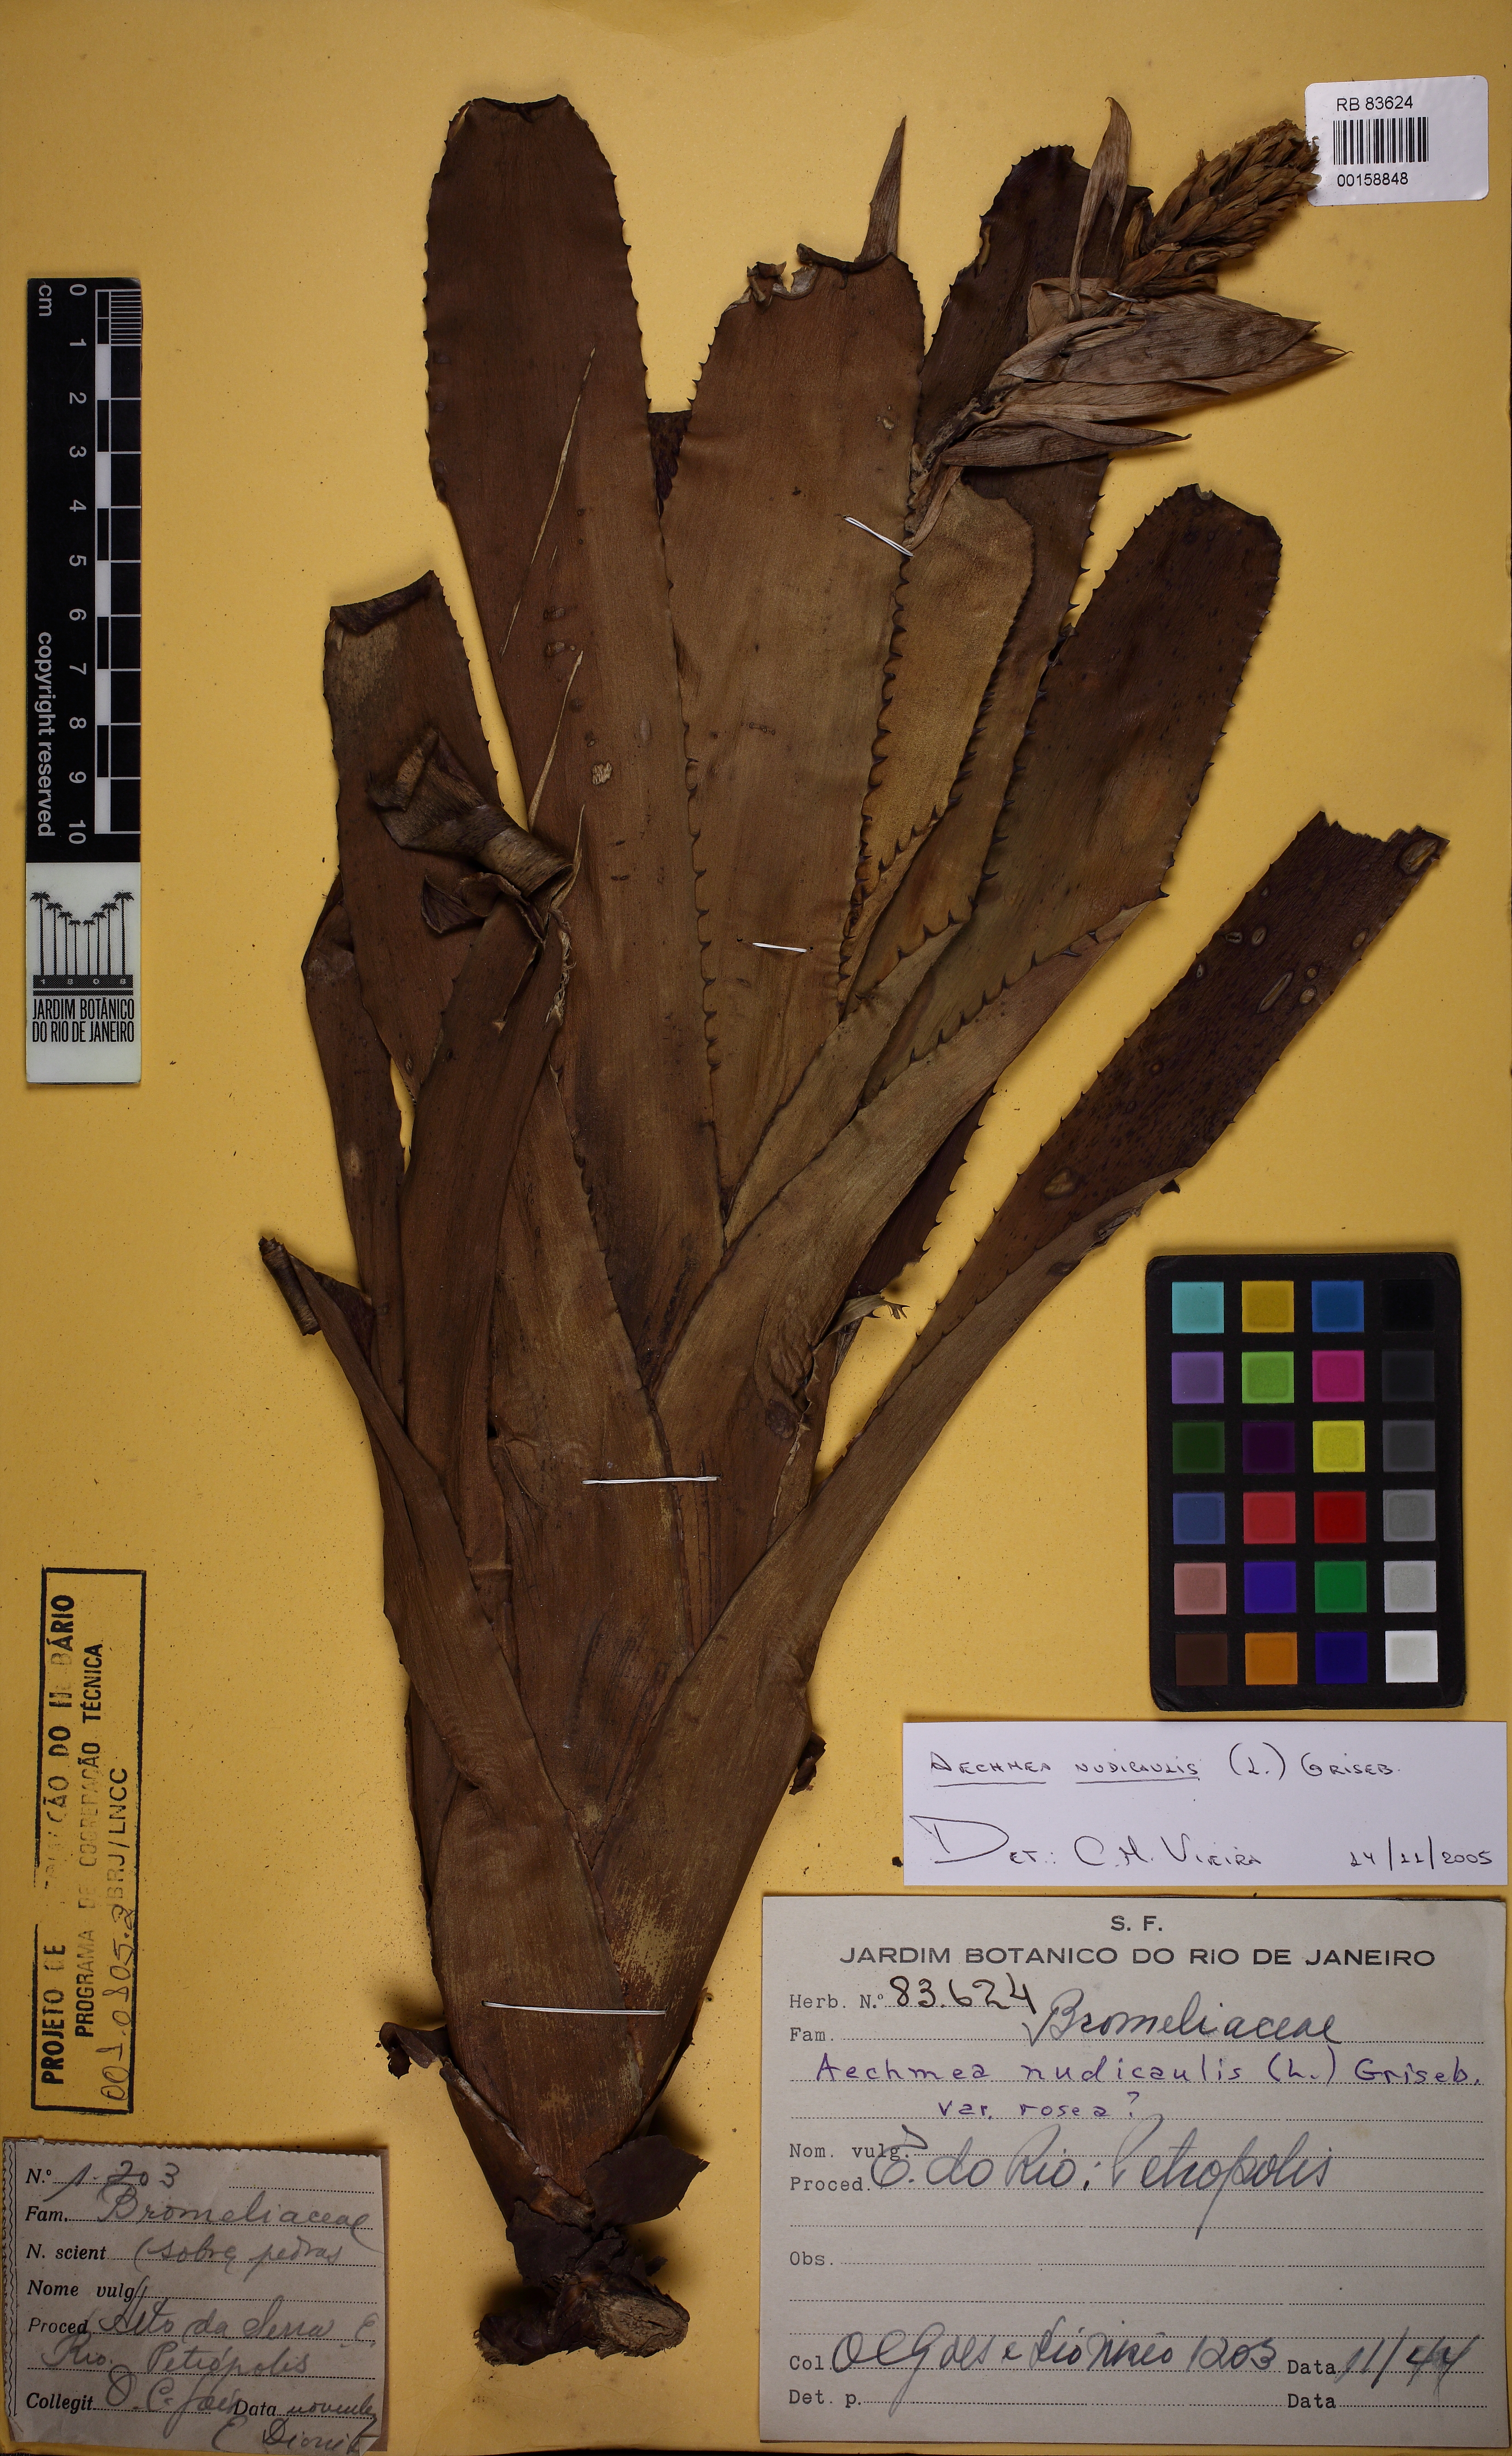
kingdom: Plantae
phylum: Tracheophyta
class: Liliopsida
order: Poales
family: Bromeliaceae
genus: Aechmea
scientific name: Aechmea nudicaulis
